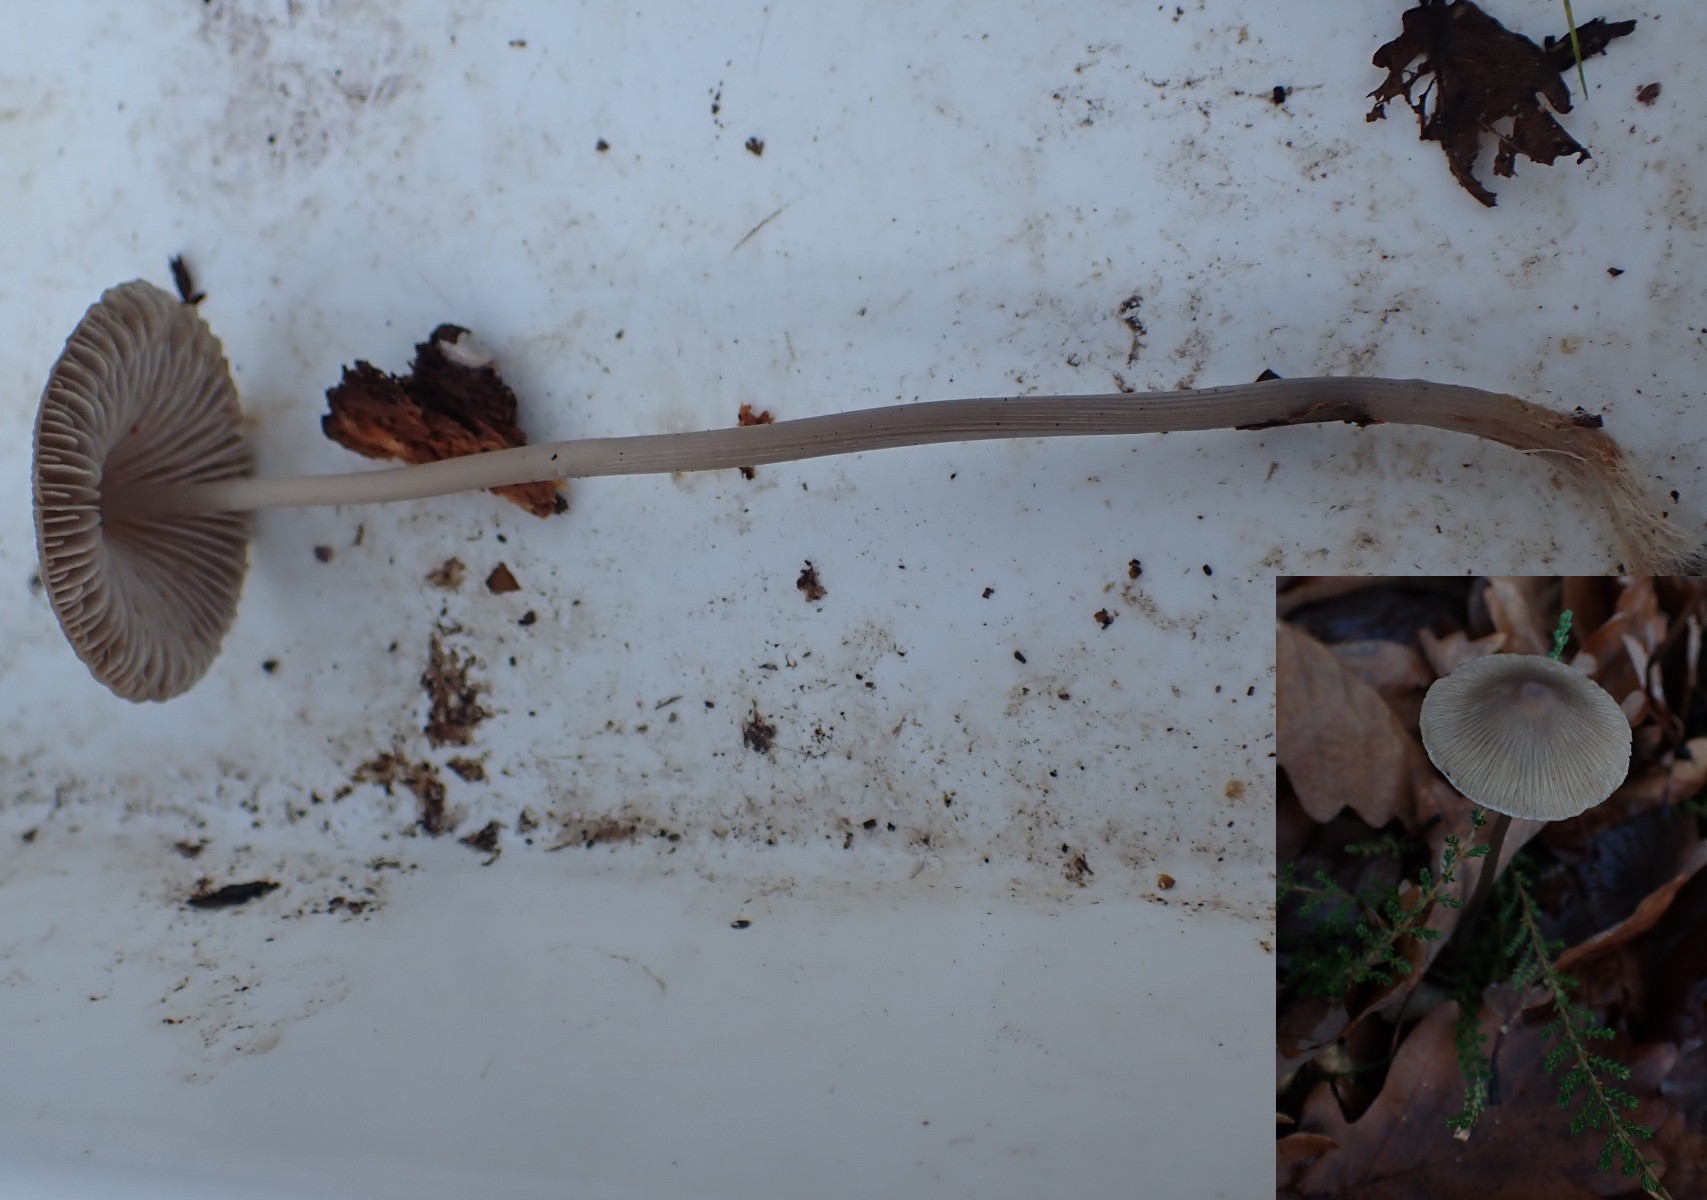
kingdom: Fungi
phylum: Basidiomycota
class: Agaricomycetes
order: Agaricales
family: Mycenaceae
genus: Mycena
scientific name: Mycena polygramma
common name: mangestribet huesvamp
